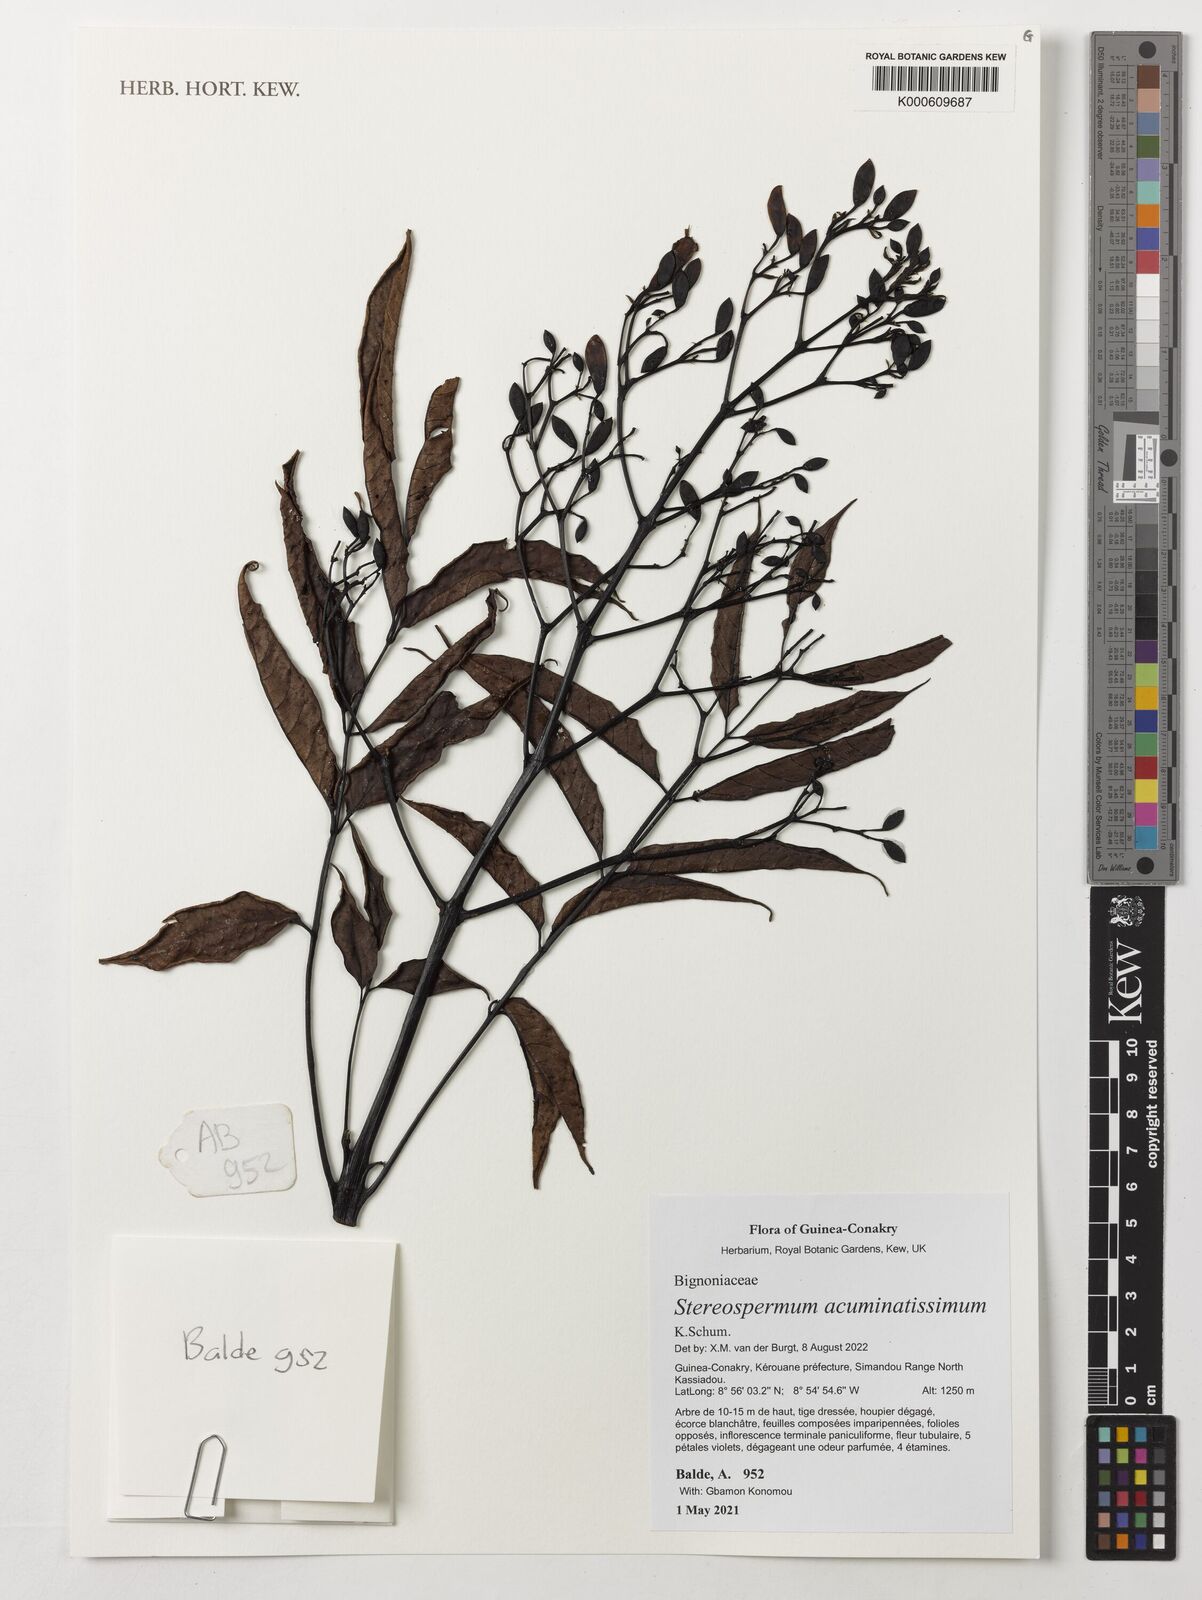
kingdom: Plantae
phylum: Tracheophyta
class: Magnoliopsida
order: Lamiales
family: Bignoniaceae
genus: Stereospermum
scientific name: Stereospermum acuminatissimum
